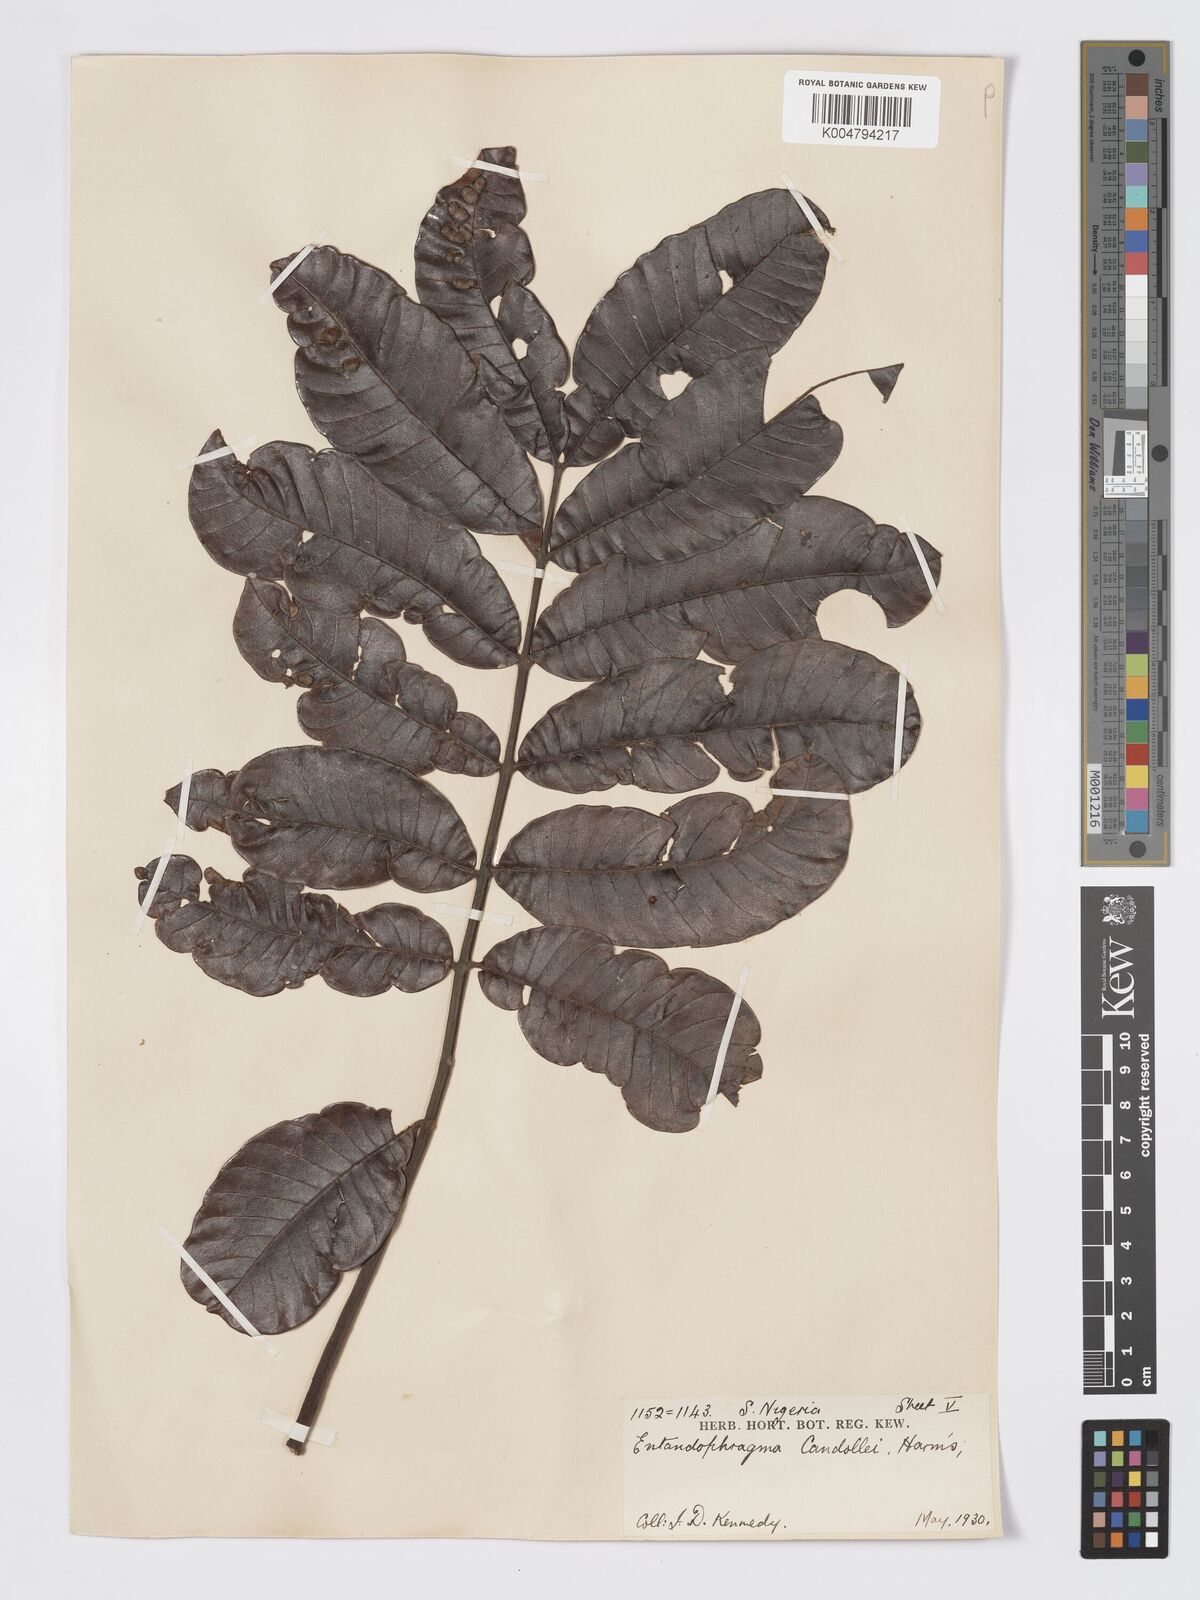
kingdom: Plantae
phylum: Tracheophyta
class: Magnoliopsida
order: Sapindales
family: Meliaceae
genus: Entandrophragma
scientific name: Entandrophragma candollei
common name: Cedar kokoti
